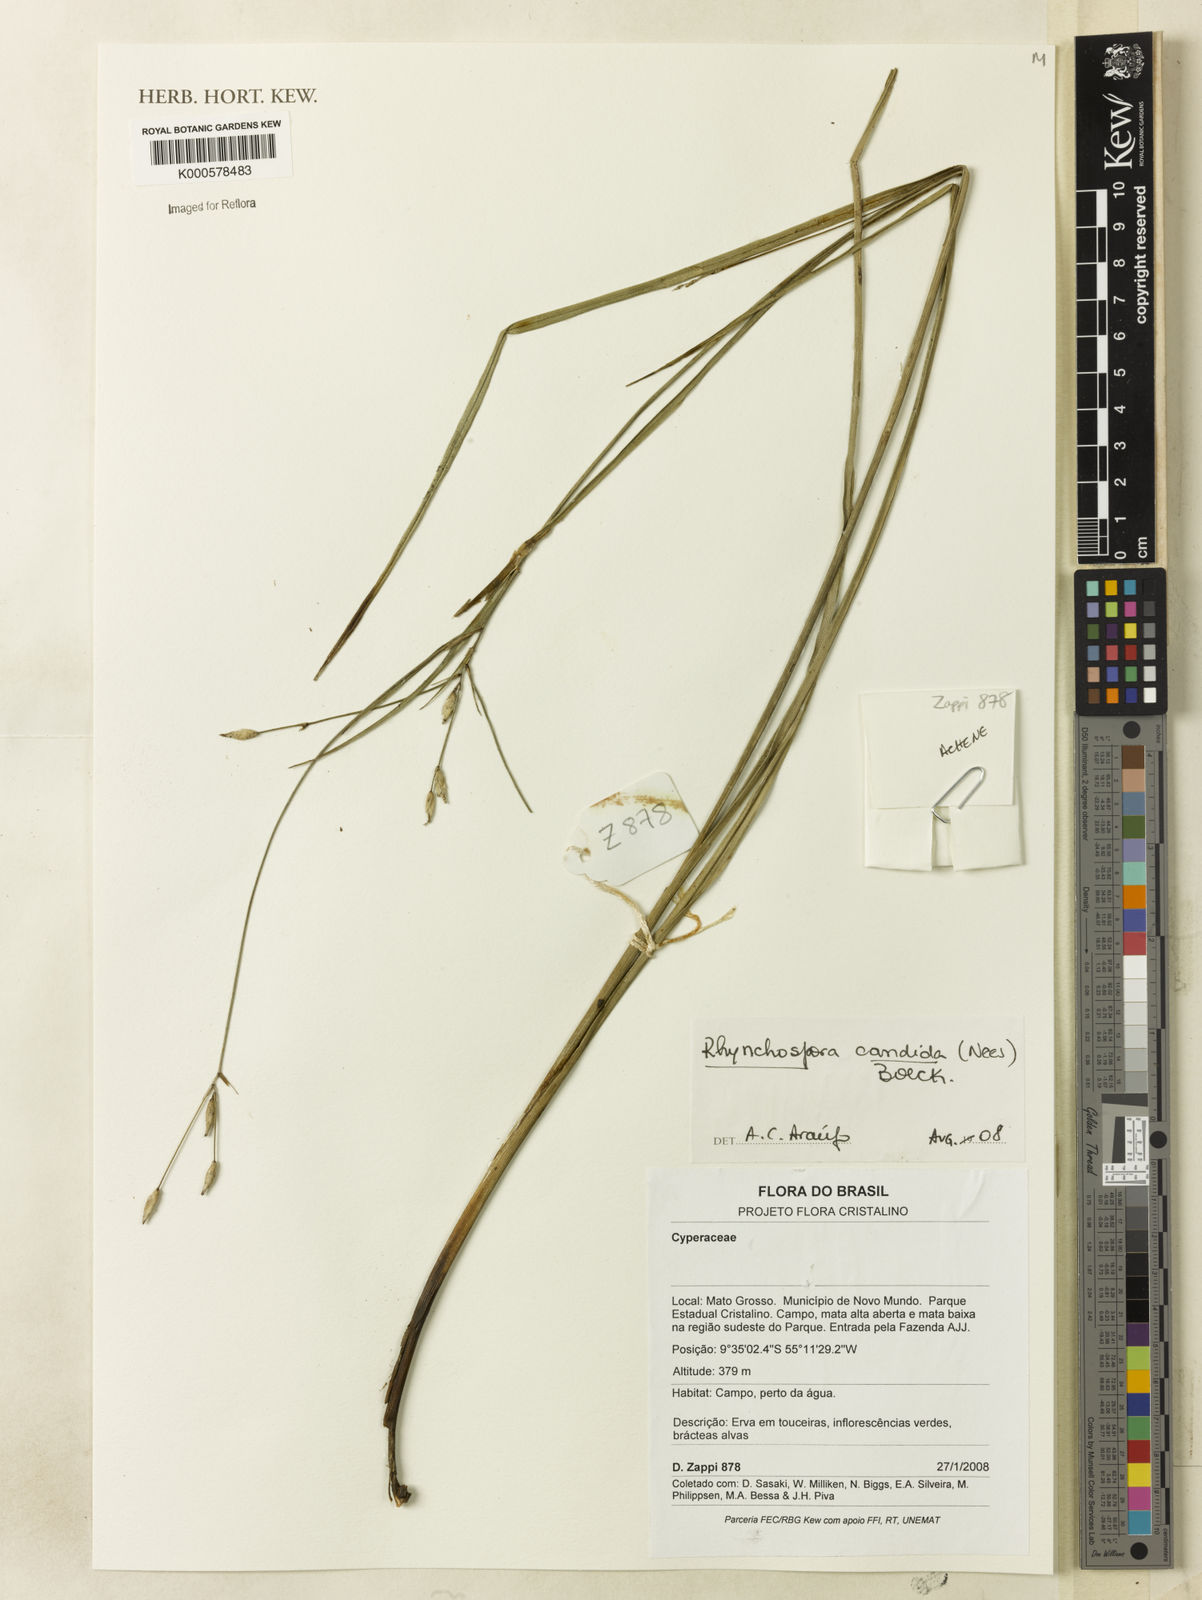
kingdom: Plantae
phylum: Tracheophyta
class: Liliopsida
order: Poales
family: Cyperaceae
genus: Rhynchospora
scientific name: Rhynchospora candida
